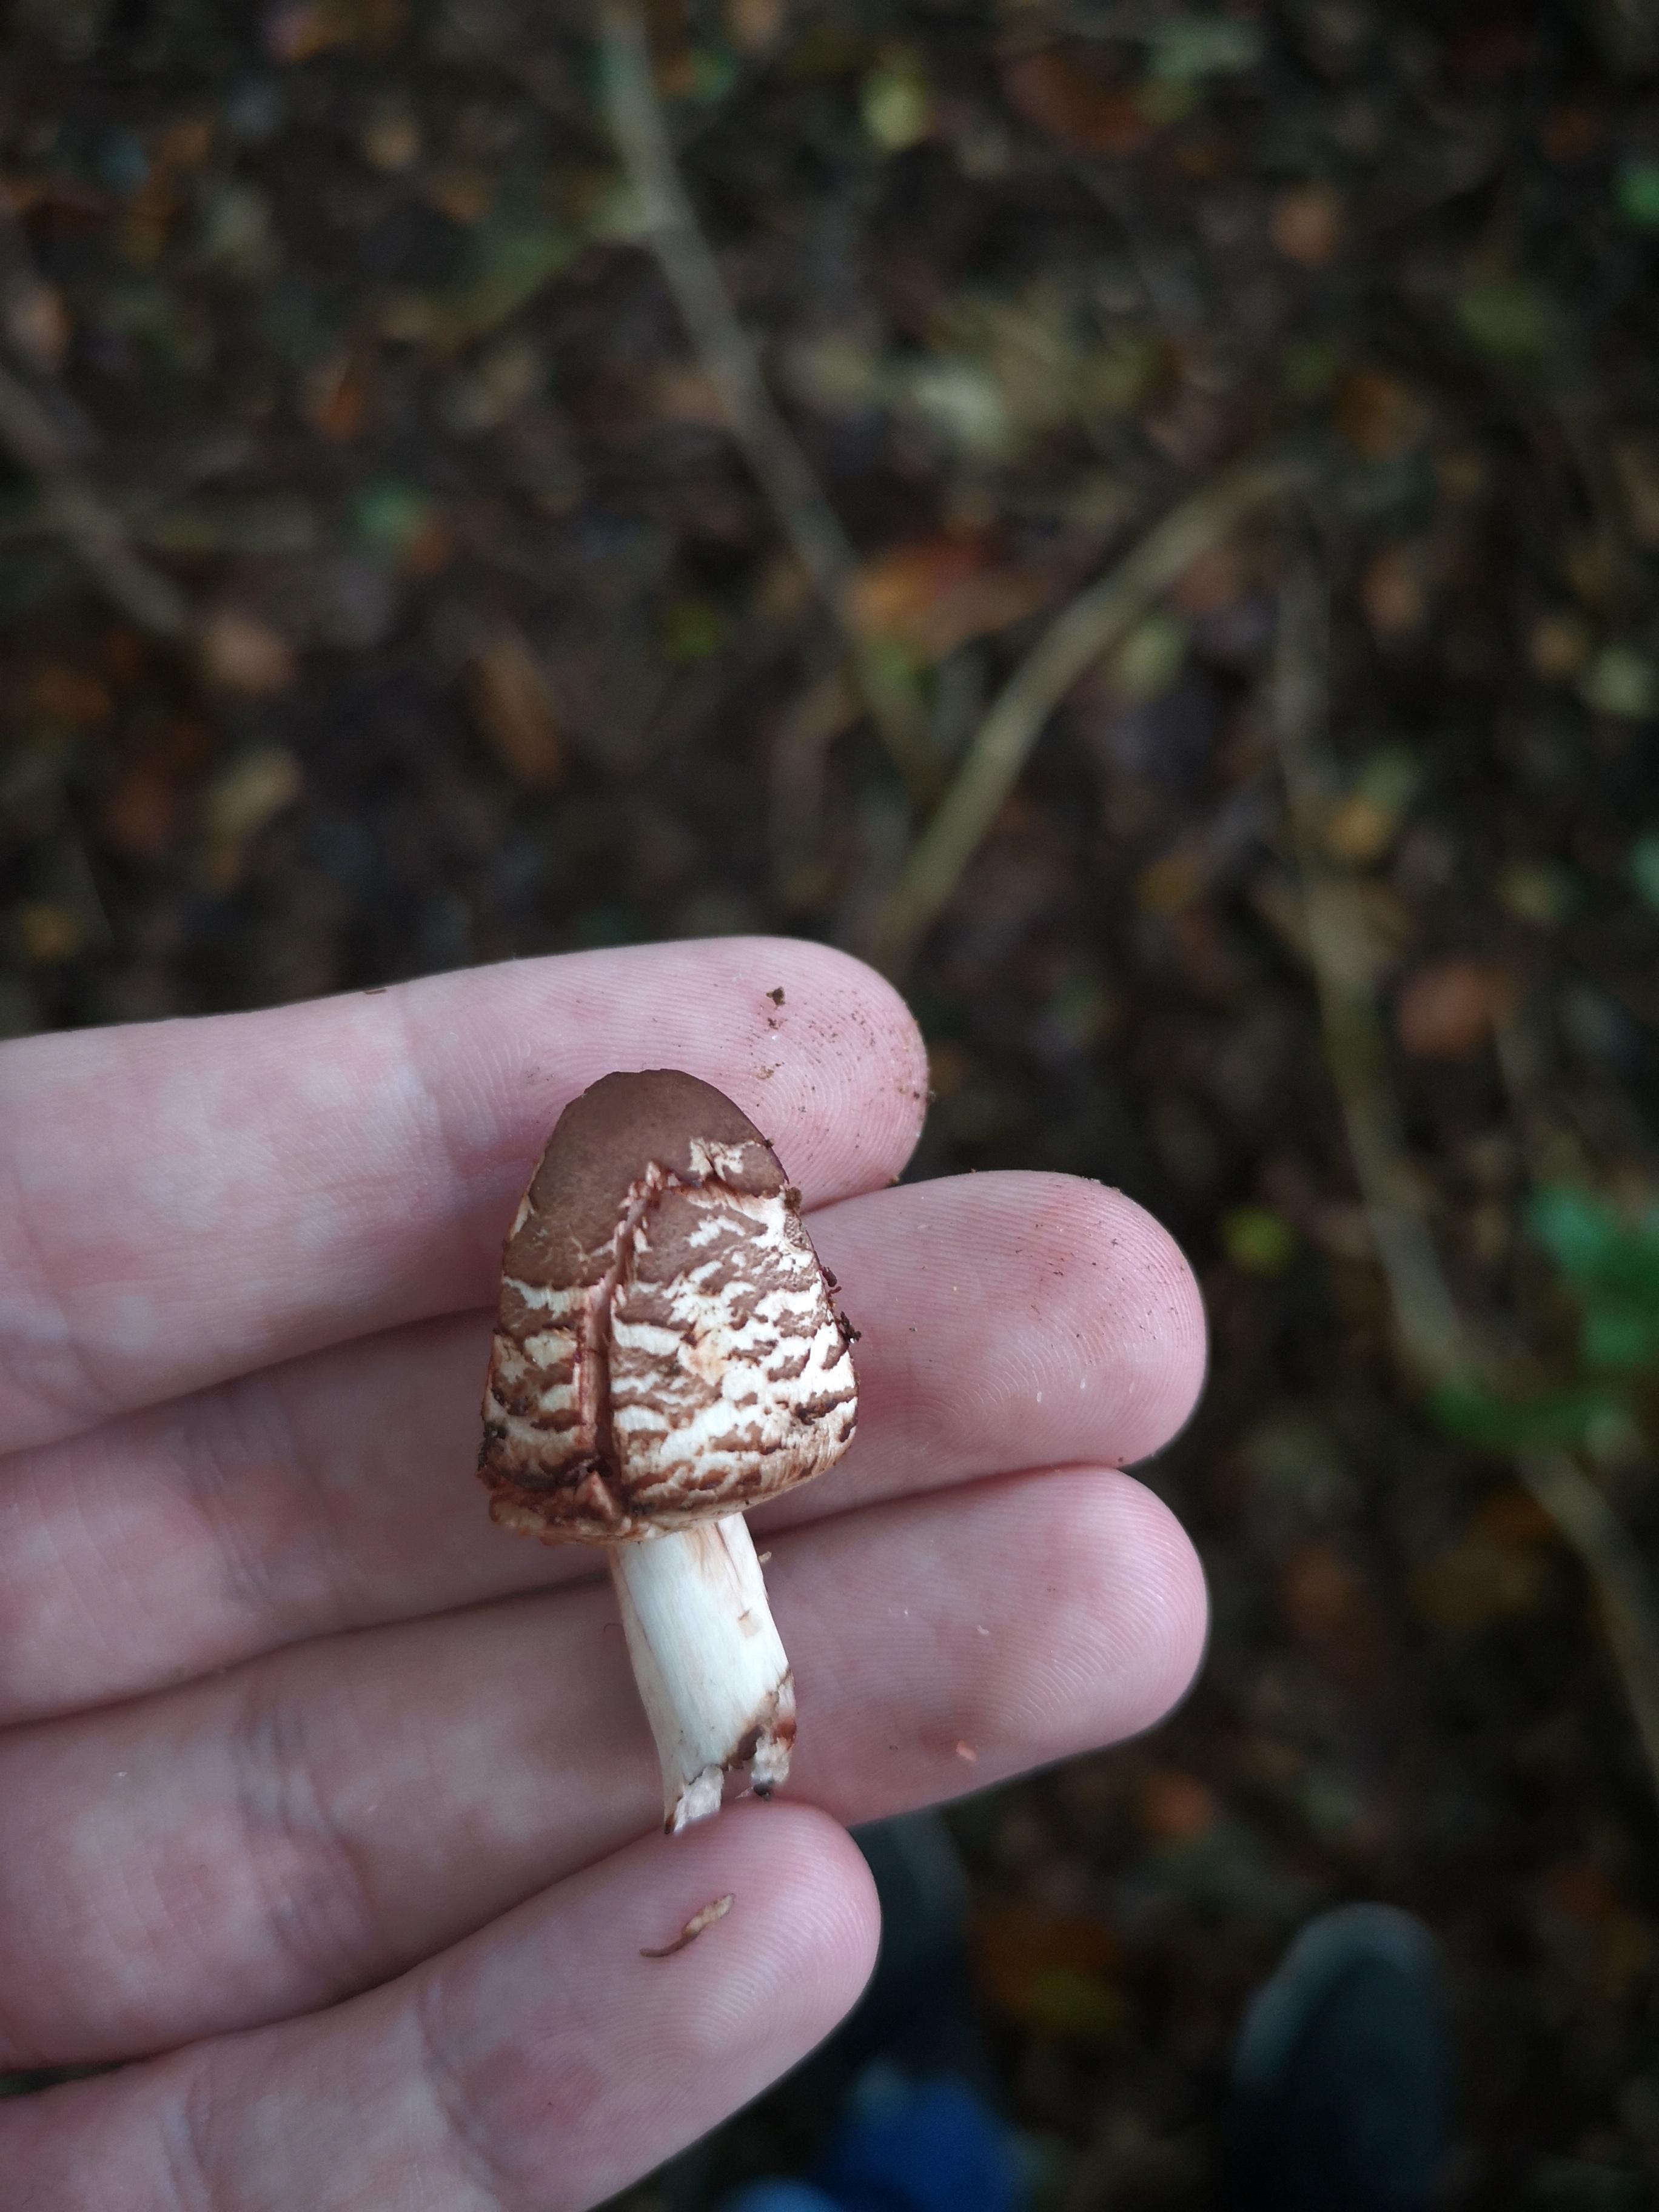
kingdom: Fungi
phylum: Basidiomycota
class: Agaricomycetes
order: Agaricales
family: Agaricaceae
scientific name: Agaricaceae
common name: champignonfamilien
